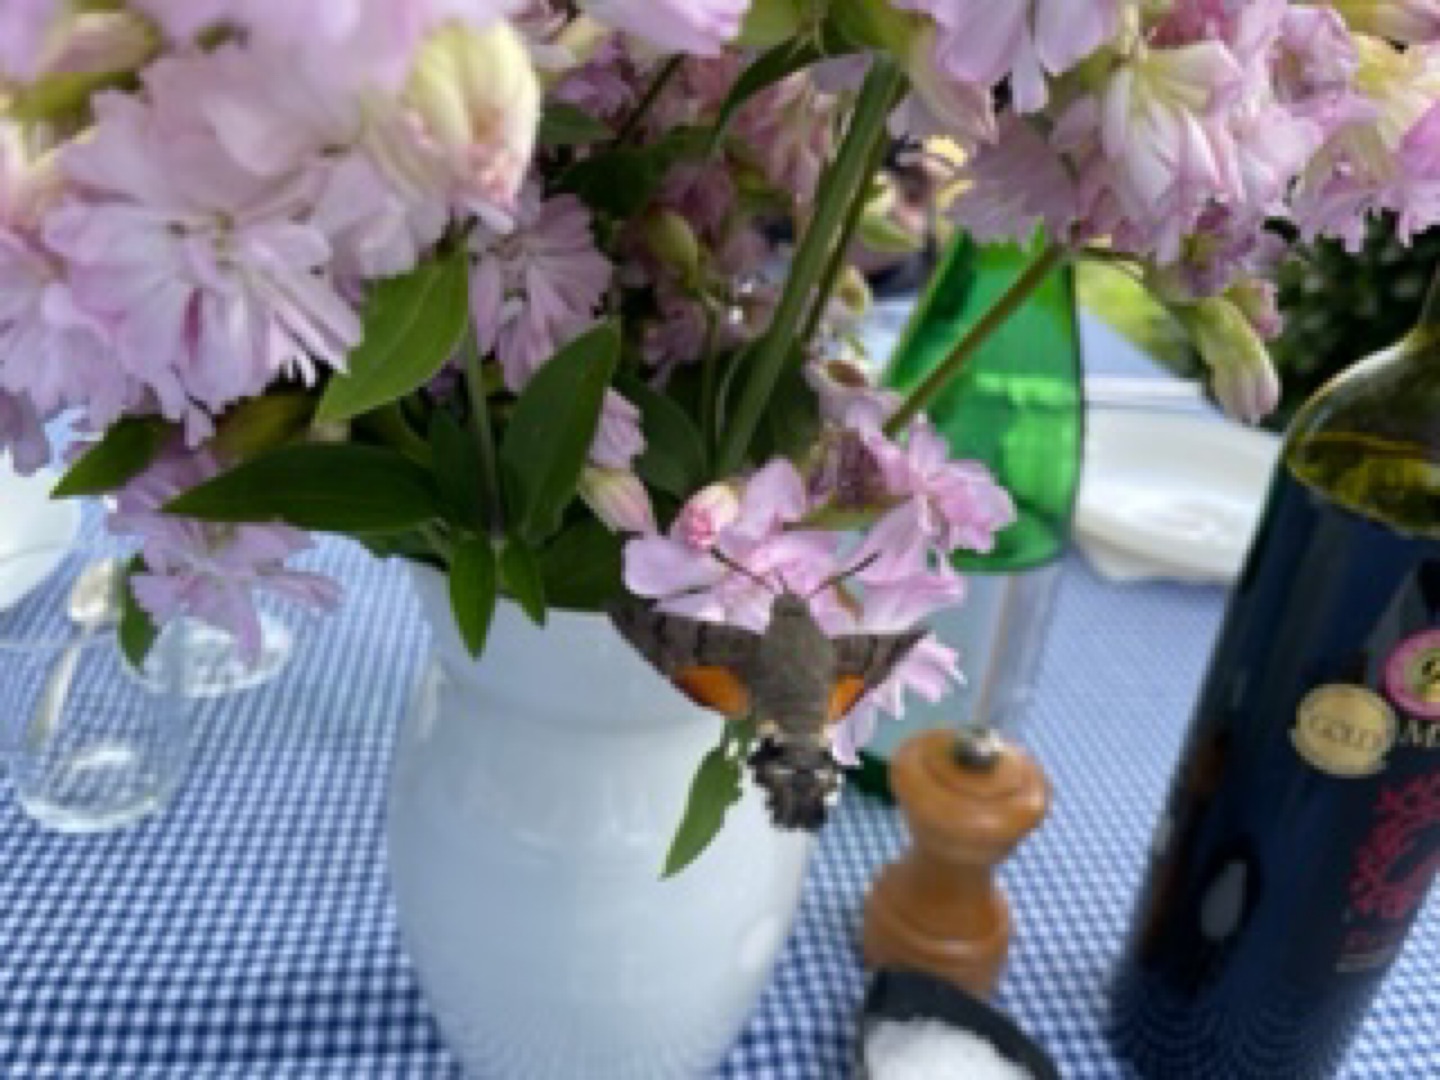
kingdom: Animalia
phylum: Arthropoda
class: Insecta
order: Lepidoptera
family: Sphingidae
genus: Macroglossum
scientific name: Macroglossum stellatarum
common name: Duehale
